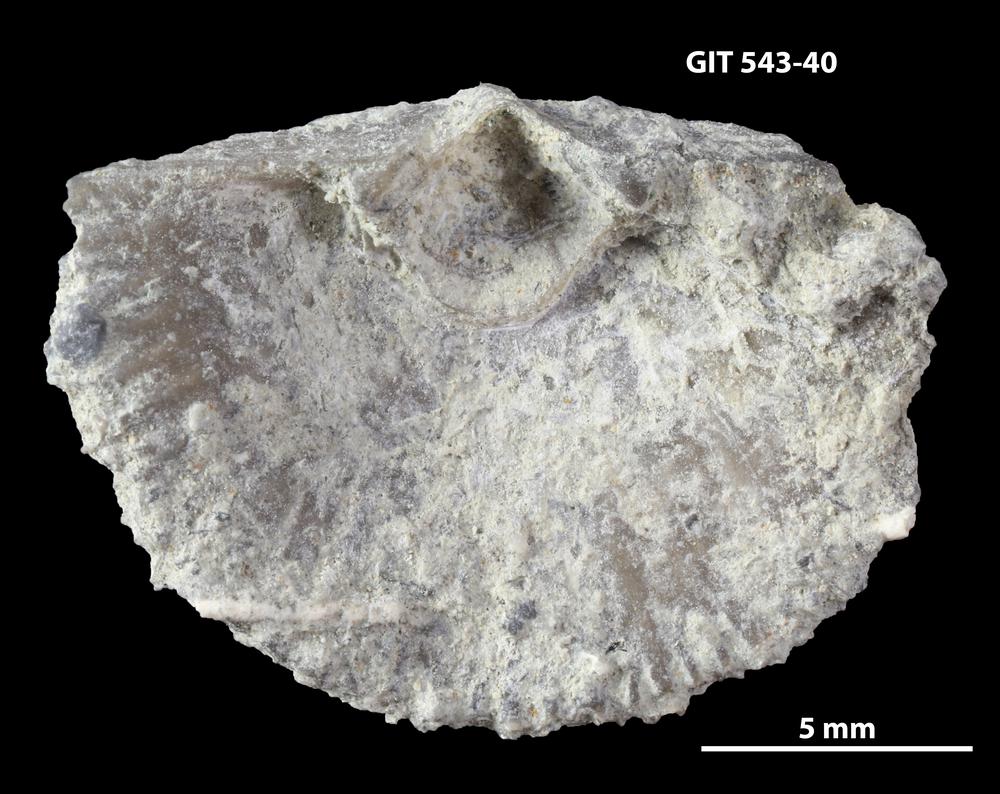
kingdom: Animalia
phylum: Brachiopoda
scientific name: Brachiopoda
